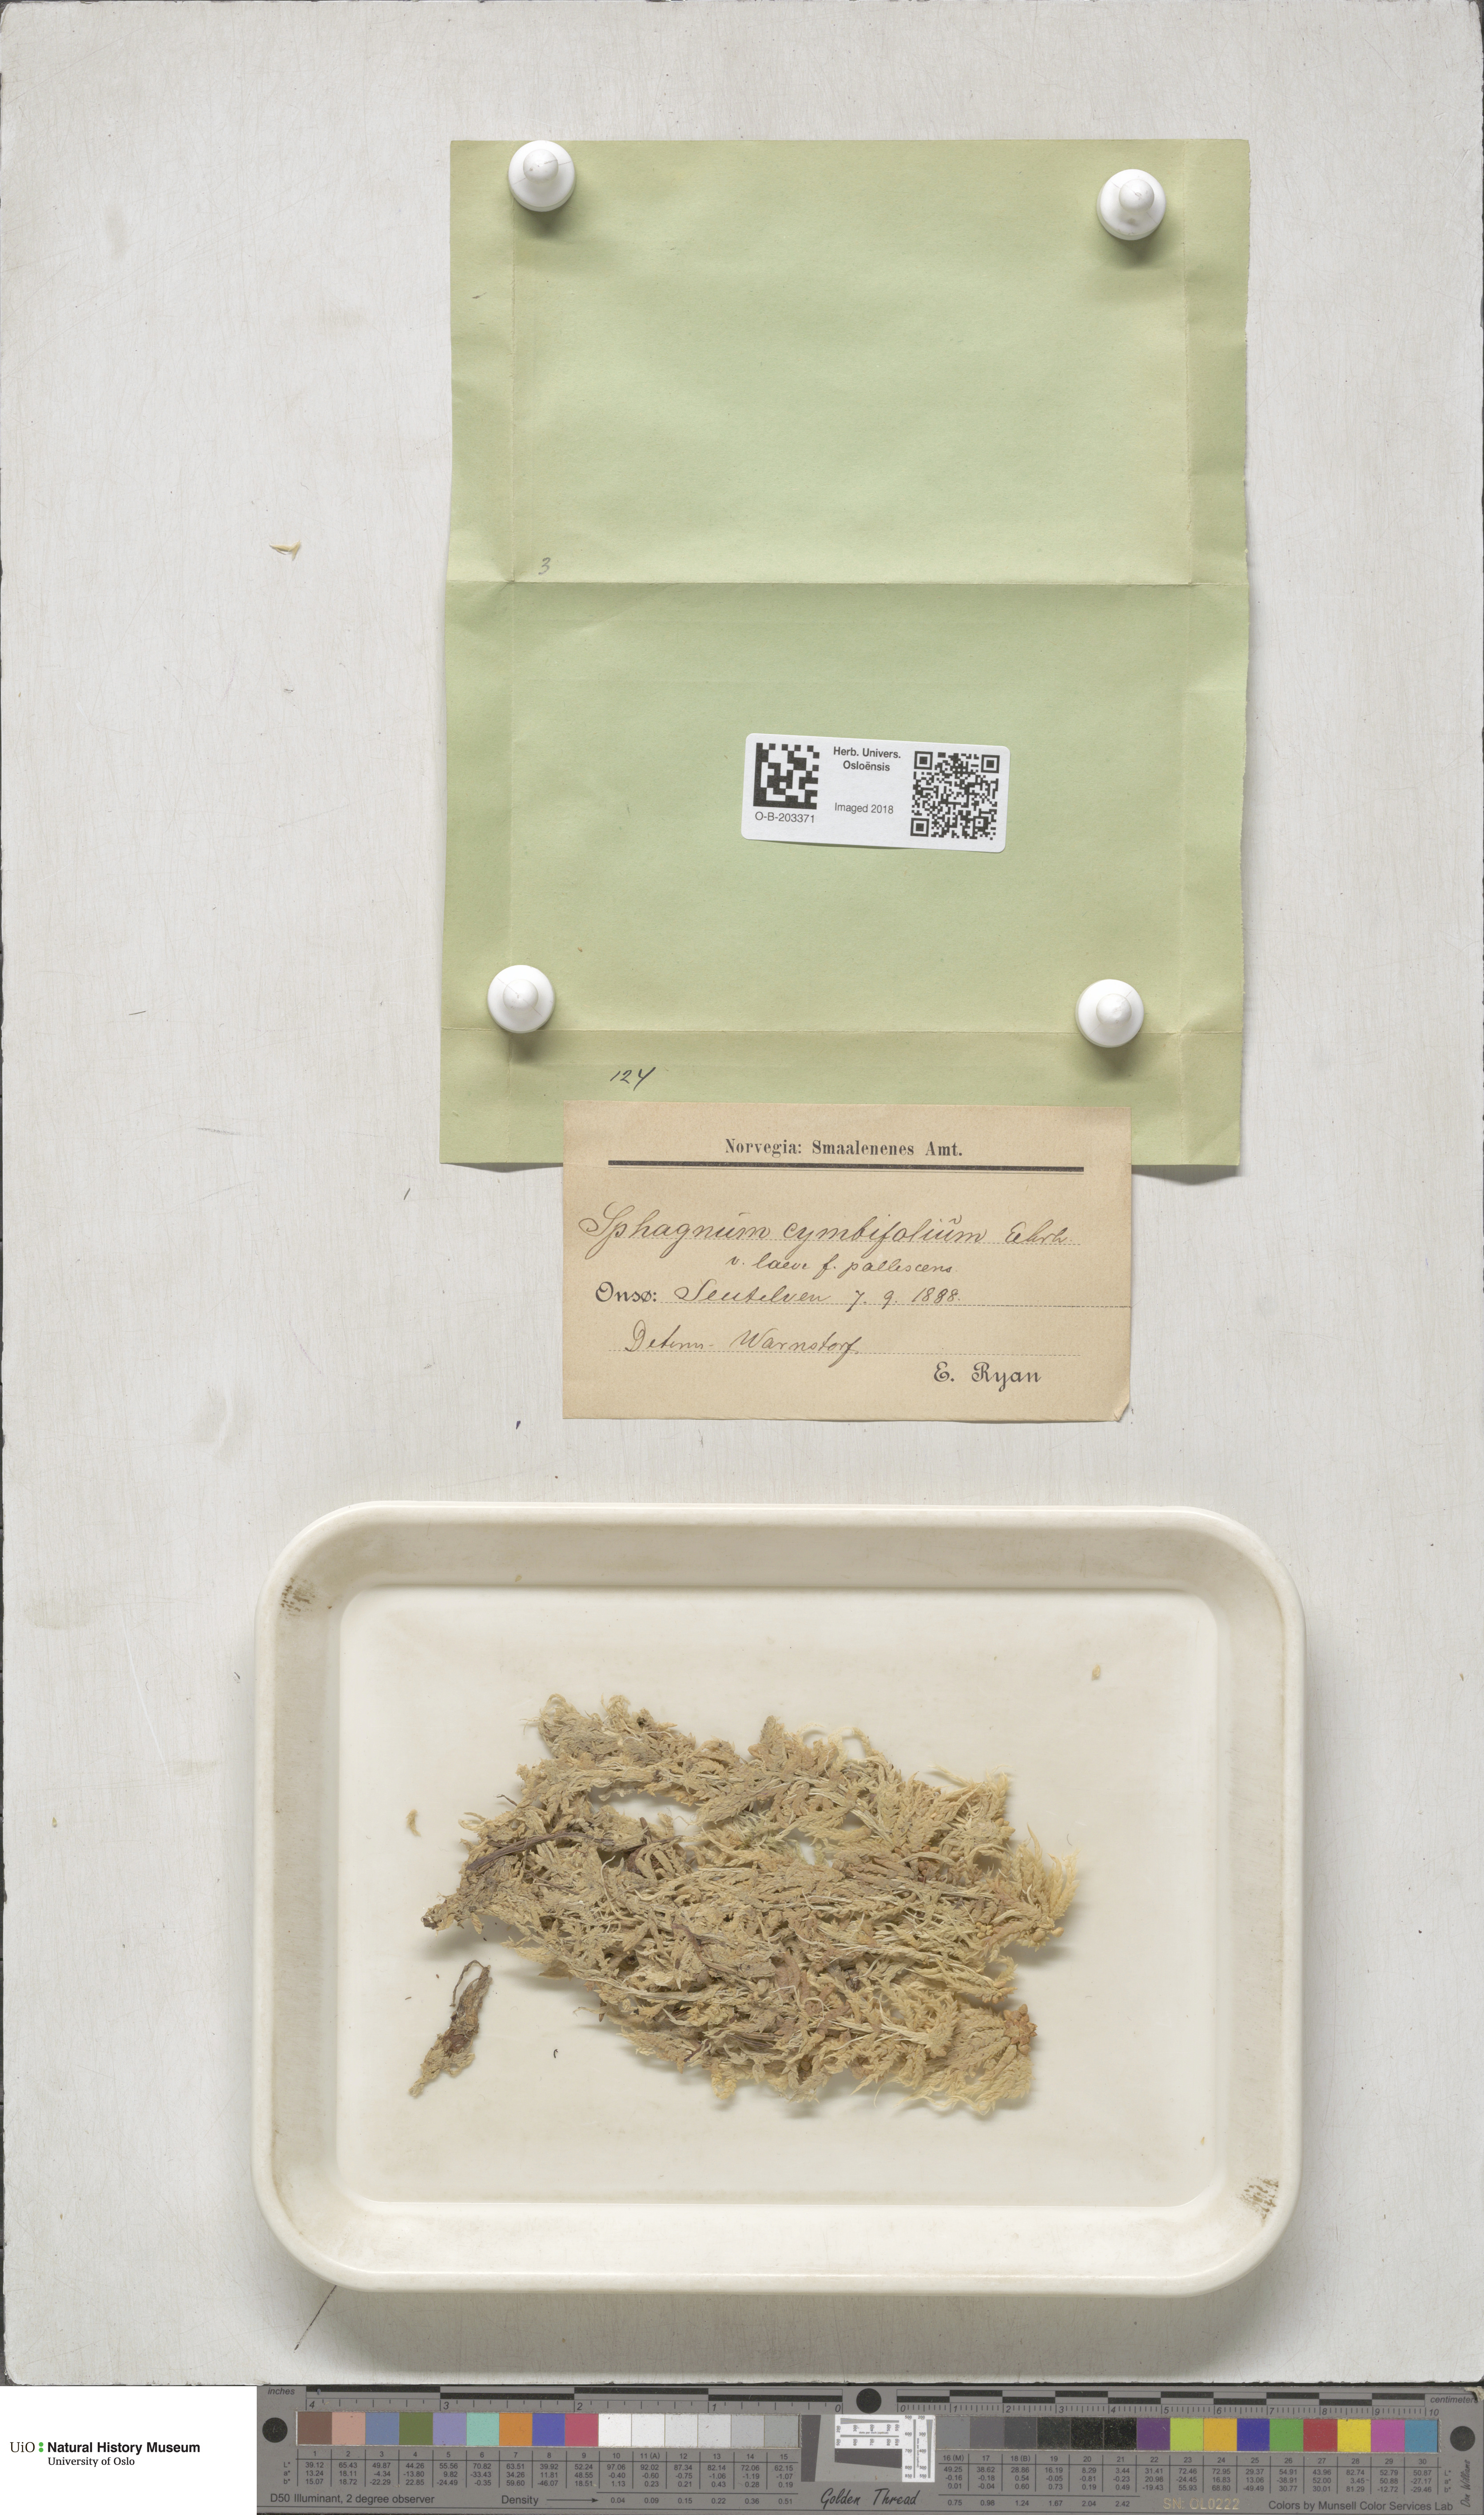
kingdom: Plantae
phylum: Bryophyta
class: Sphagnopsida
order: Sphagnales
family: Sphagnaceae
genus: Sphagnum
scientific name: Sphagnum palustre
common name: Blunt-leaved bog-moss
